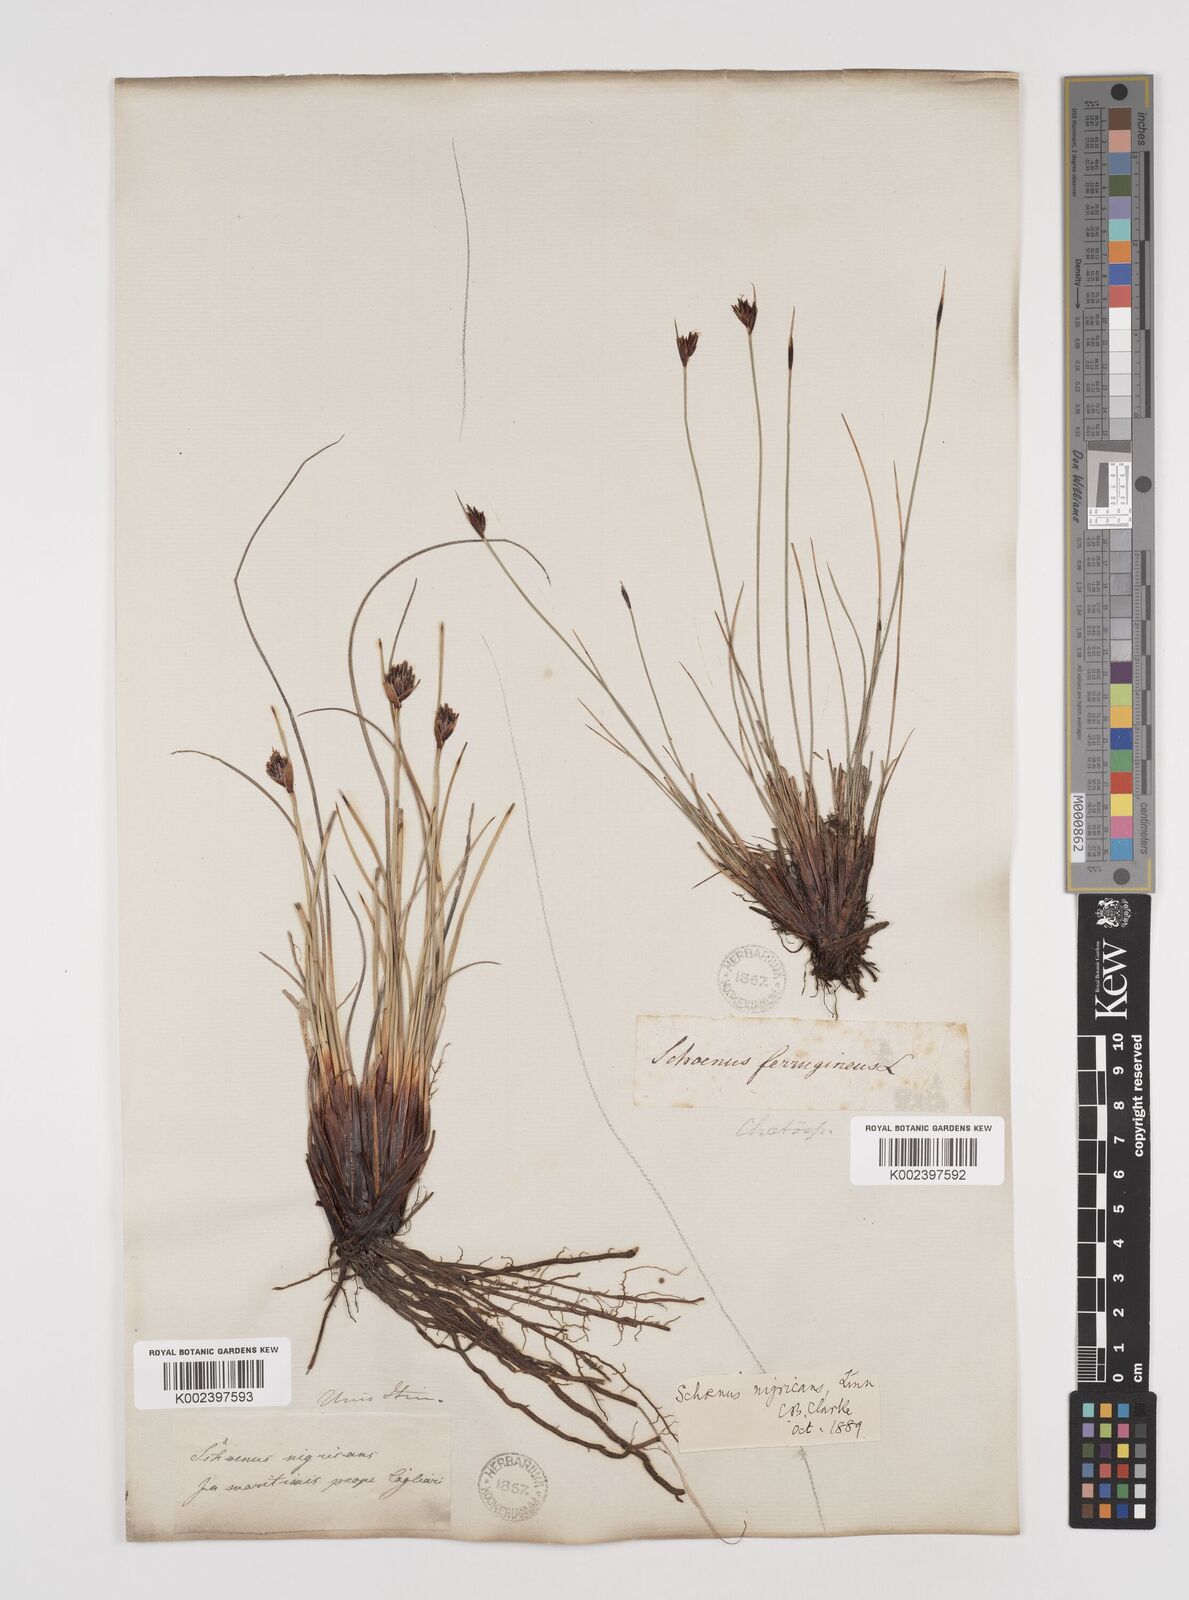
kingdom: Plantae
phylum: Tracheophyta
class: Liliopsida
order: Poales
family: Cyperaceae
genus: Schoenus
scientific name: Schoenus nigricans
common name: Black bog-rush
